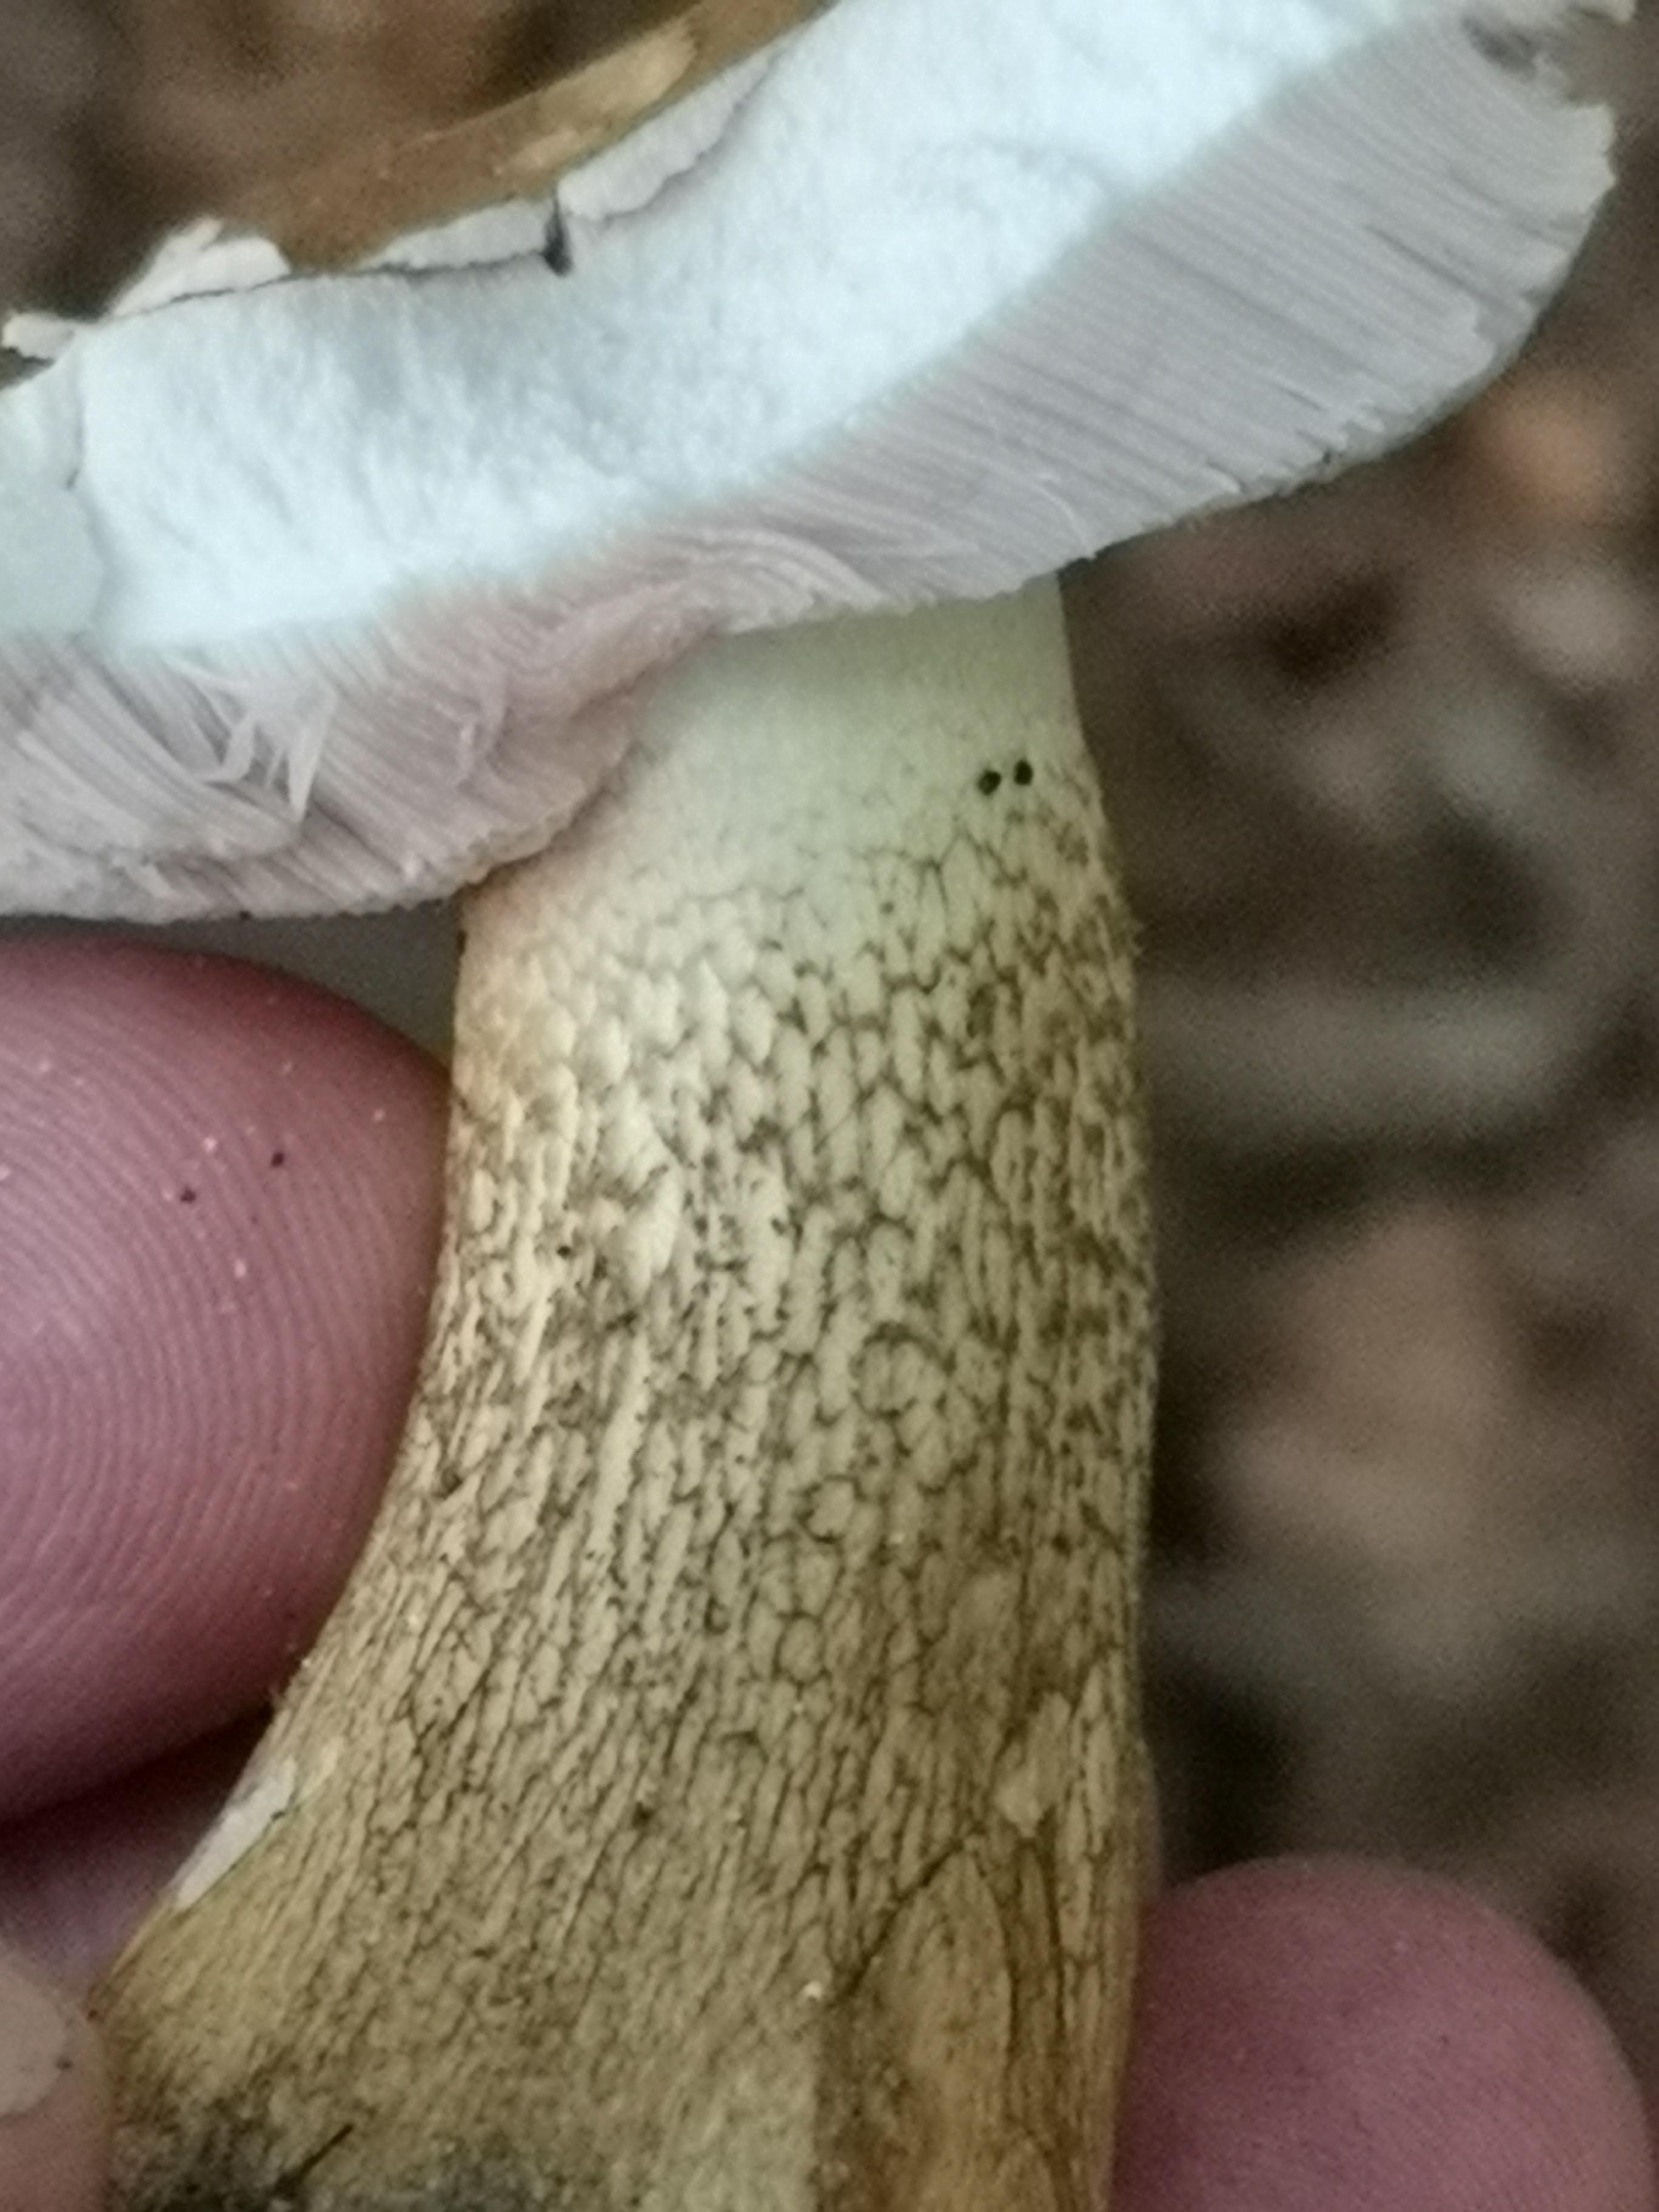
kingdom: Fungi
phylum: Basidiomycota
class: Agaricomycetes
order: Boletales
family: Boletaceae
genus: Tylopilus
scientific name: Tylopilus felleus
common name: galderørhat
